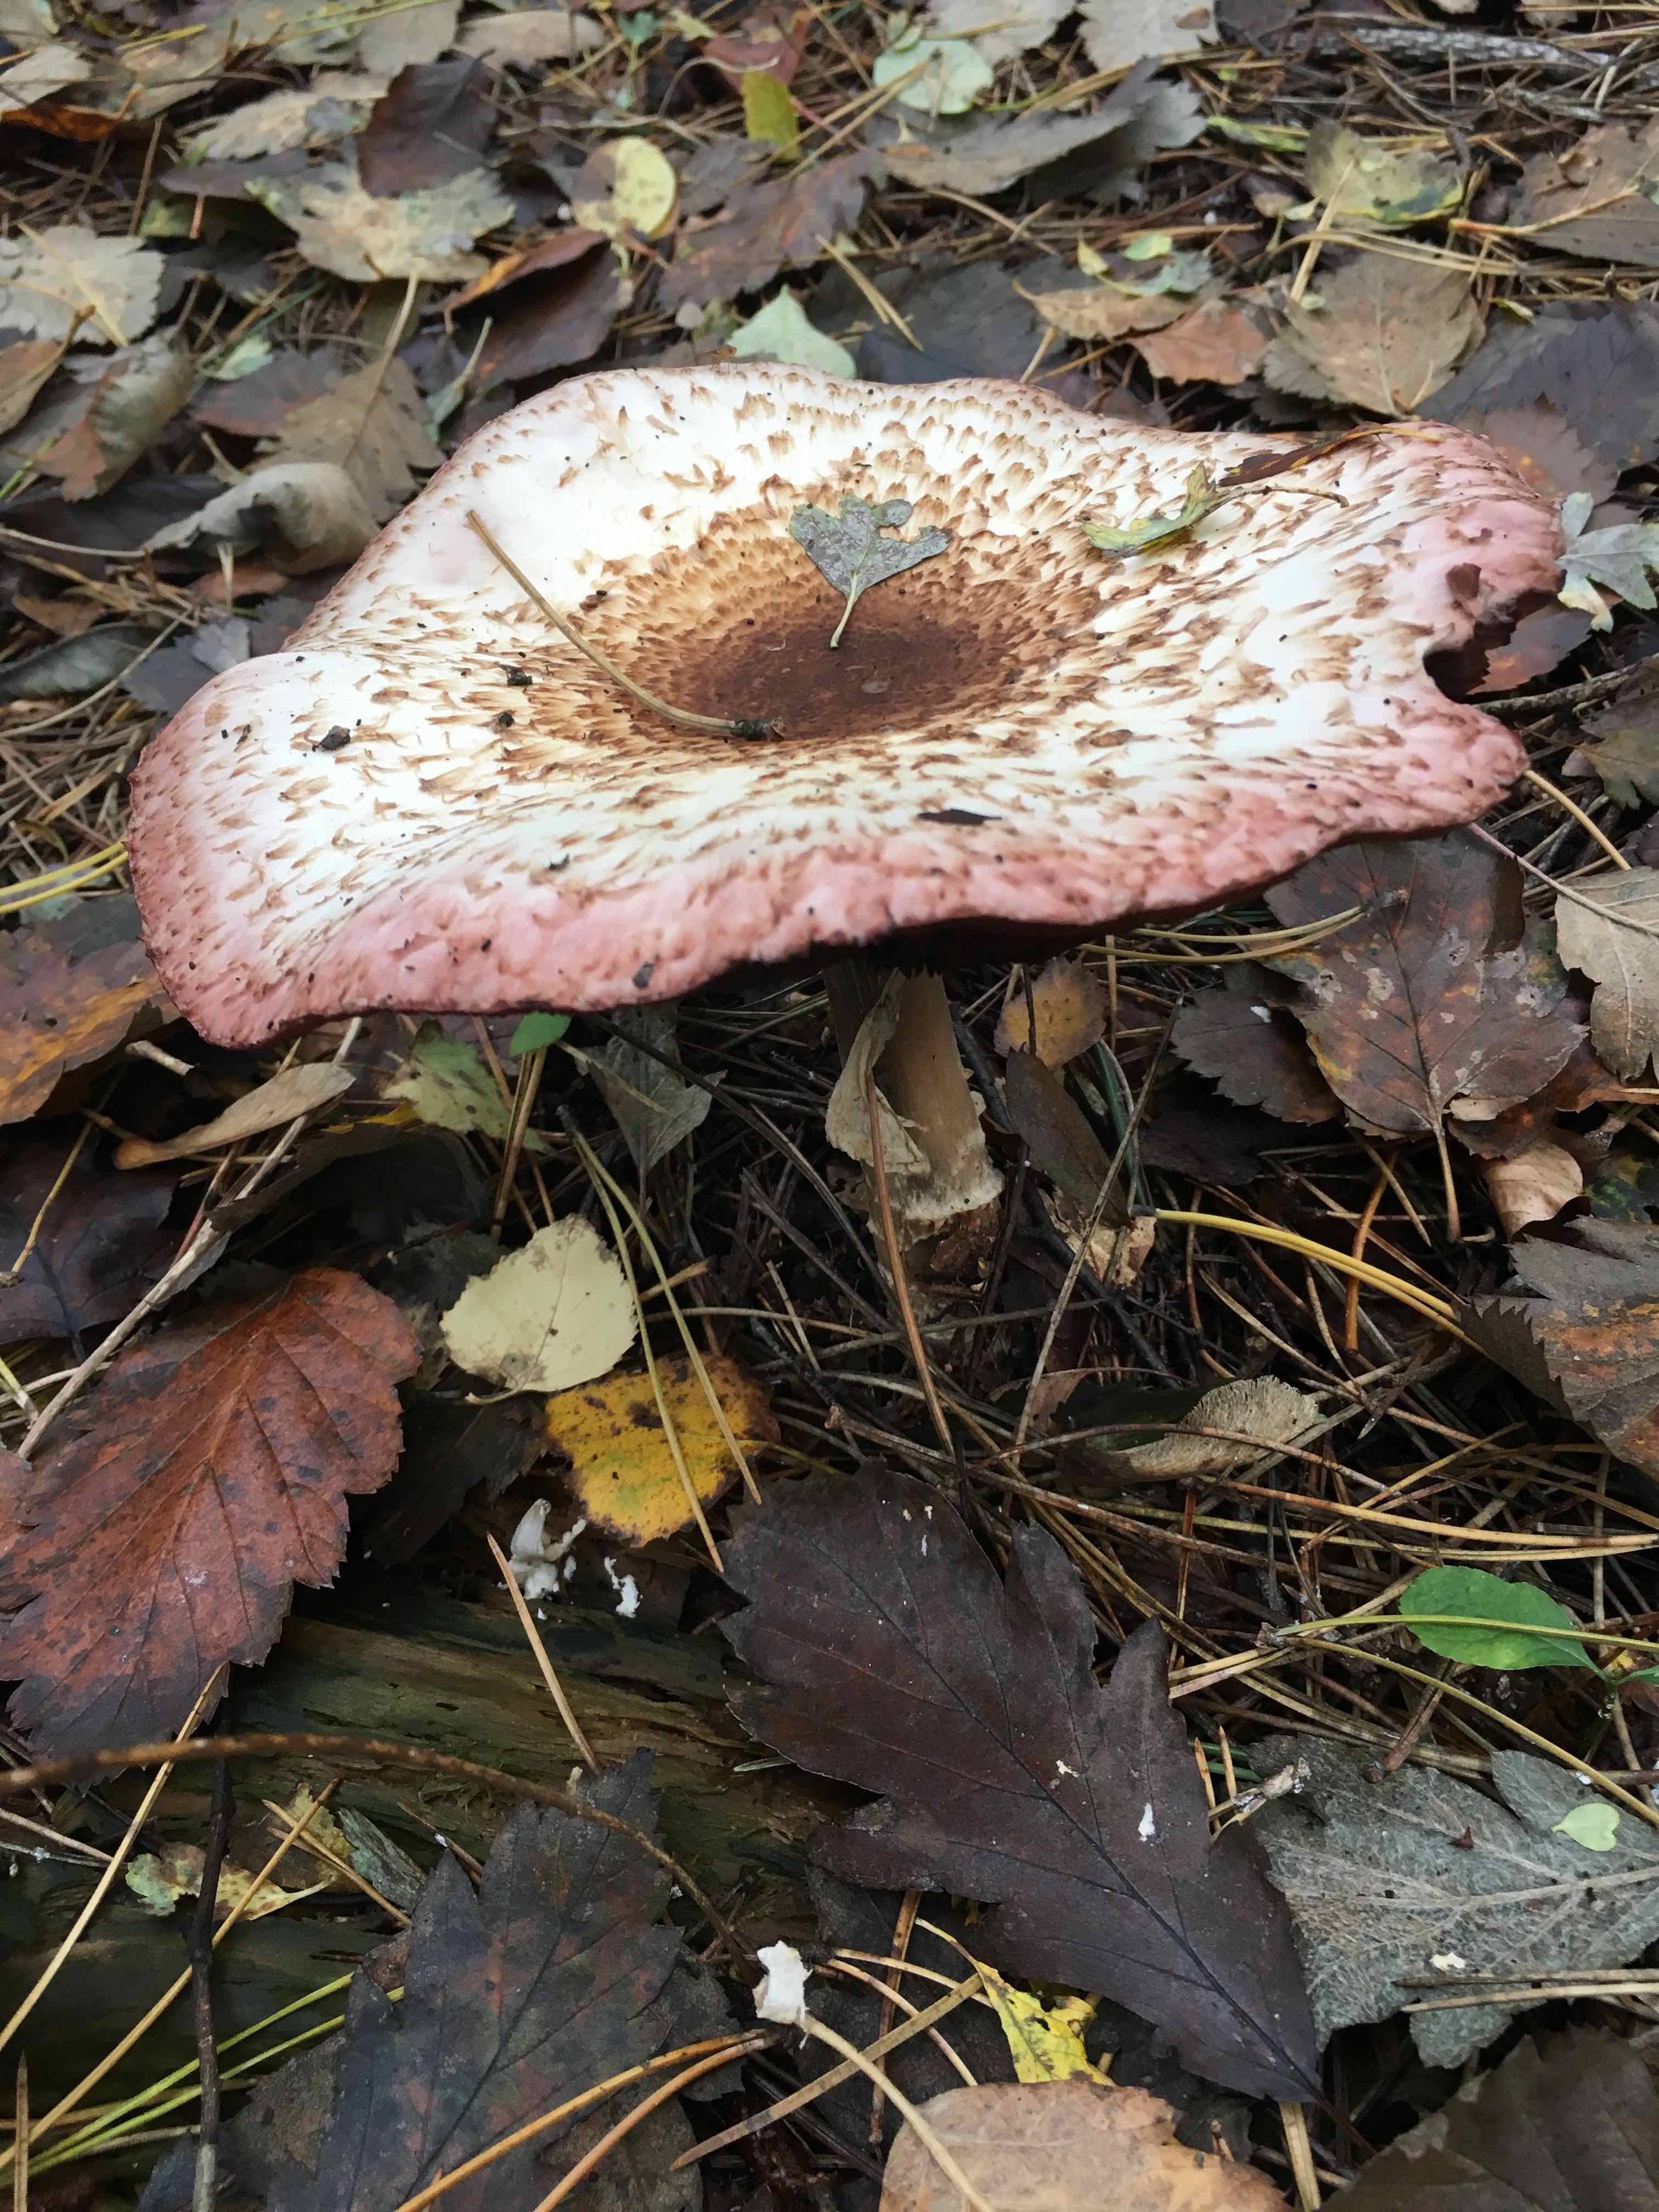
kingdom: Fungi
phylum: Basidiomycota
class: Agaricomycetes
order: Agaricales
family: Agaricaceae
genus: Agaricus
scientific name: Agaricus
